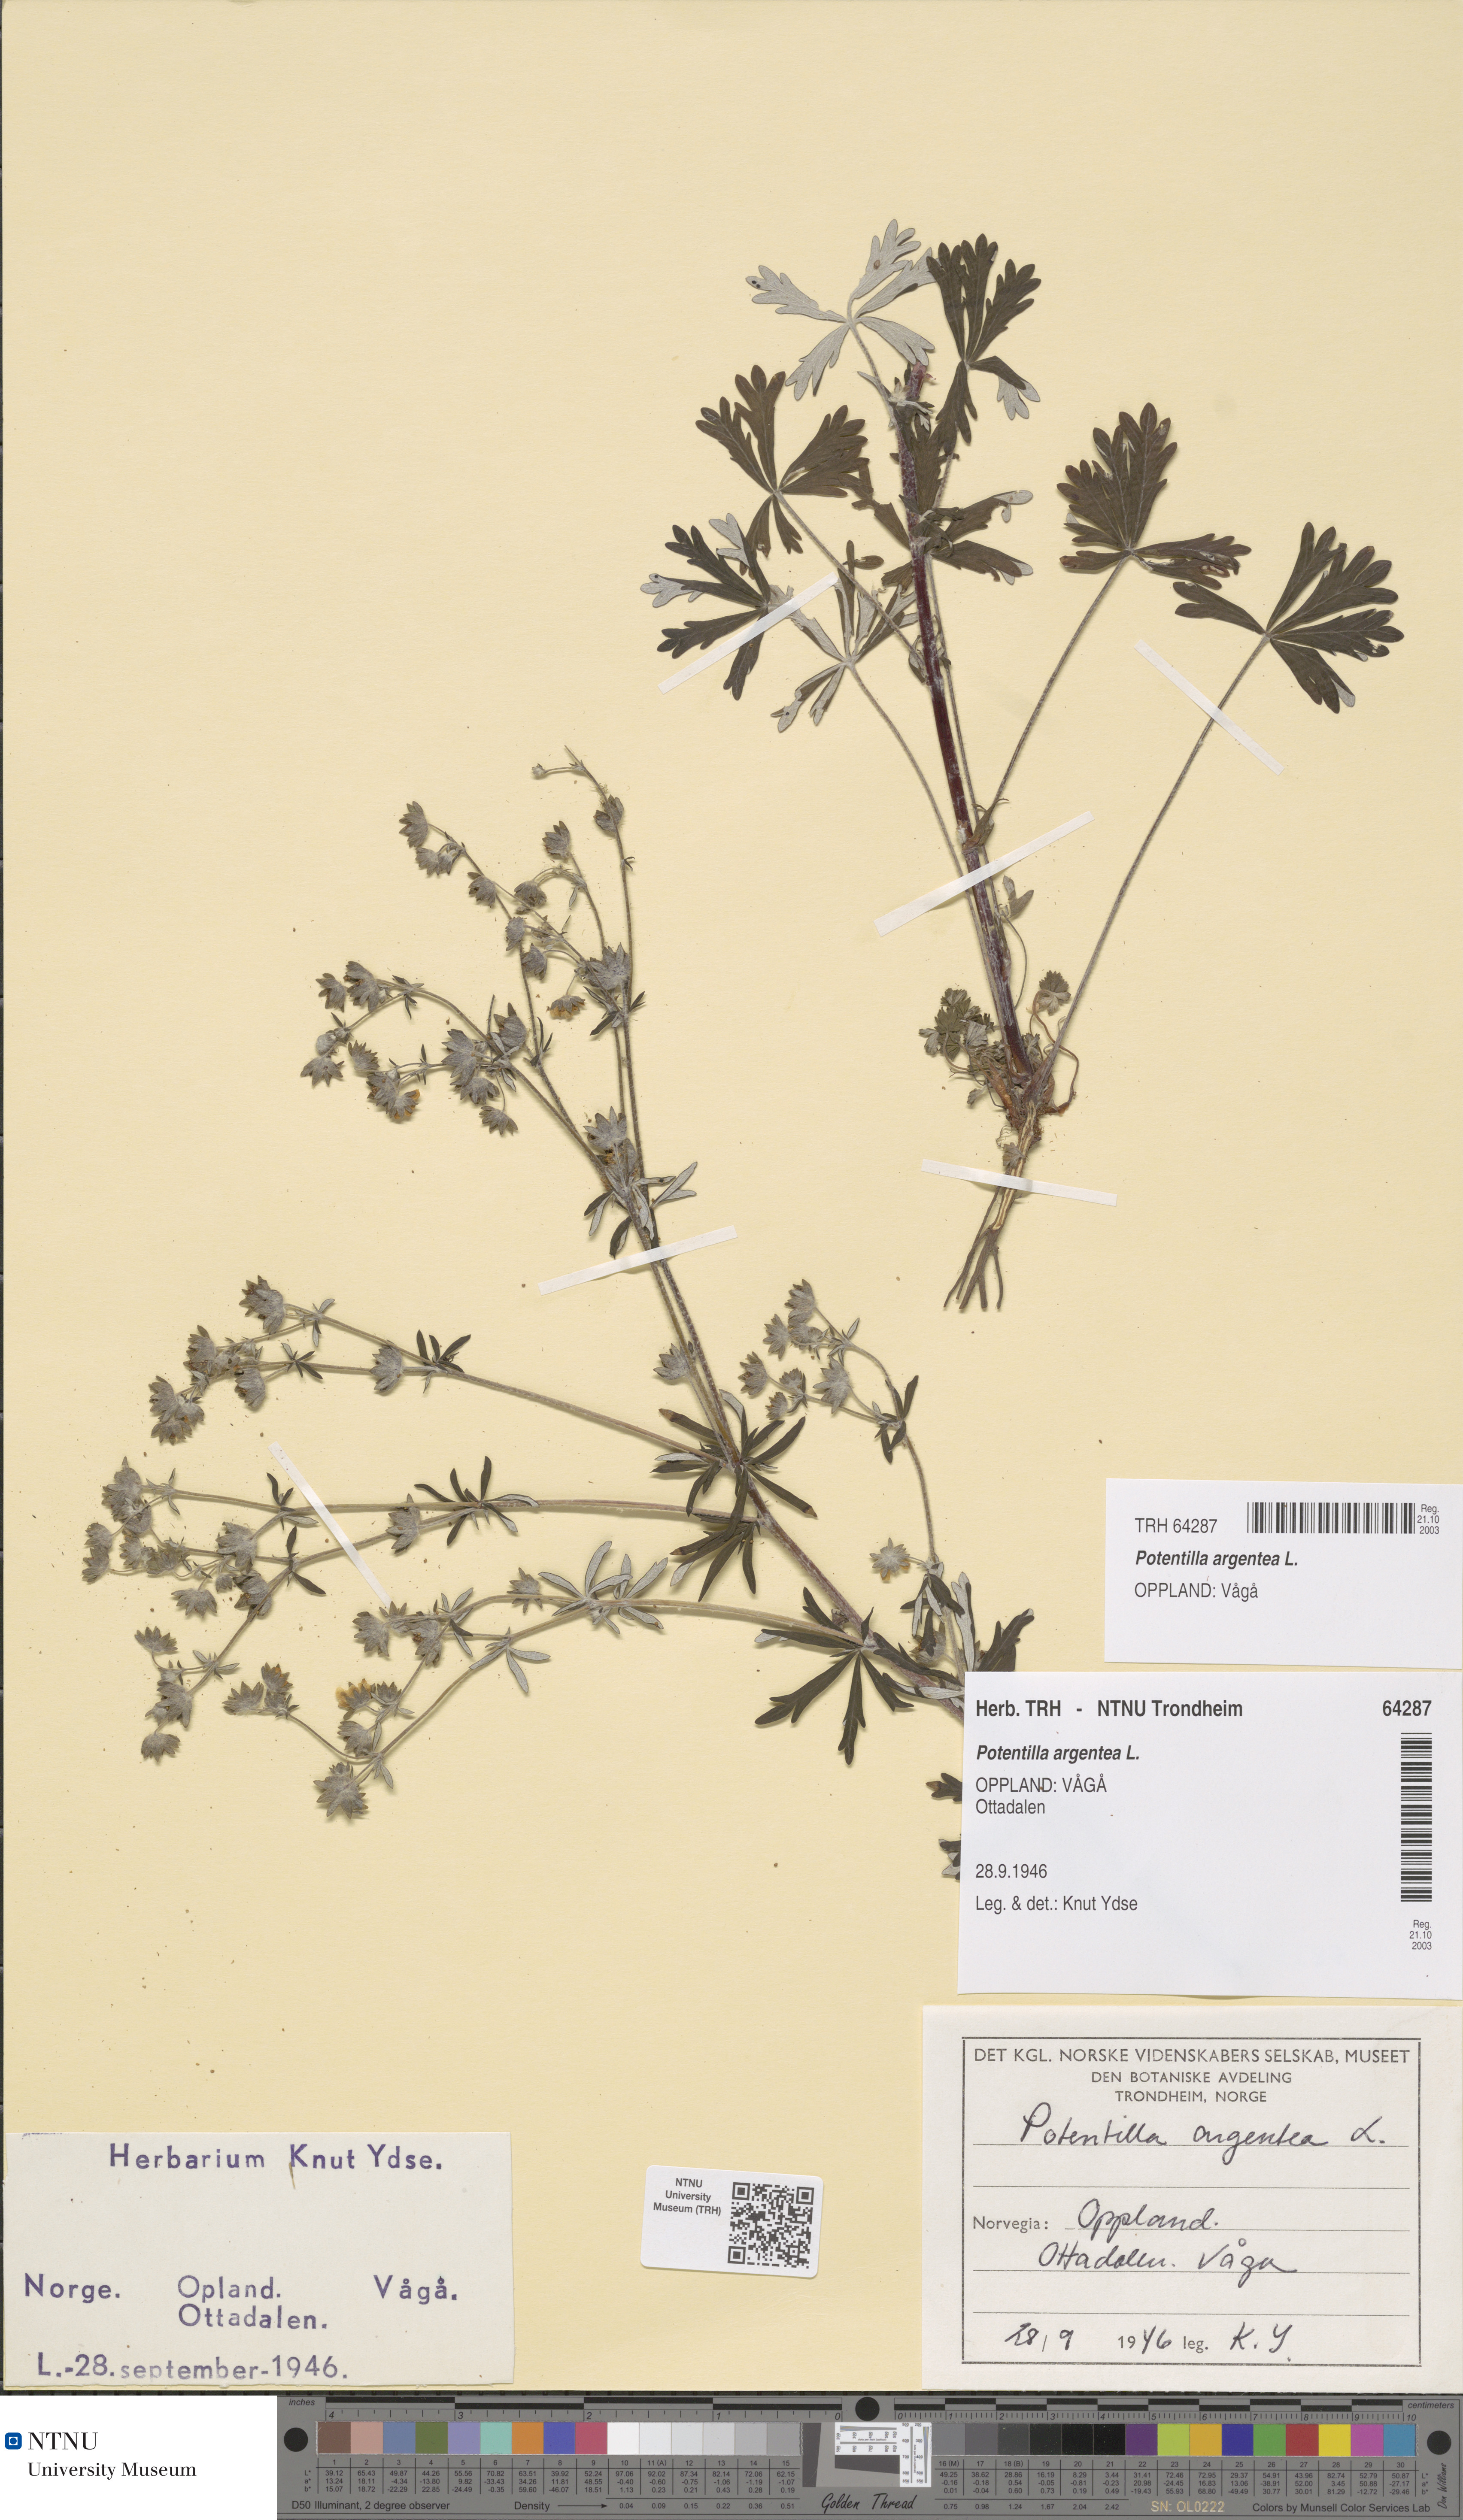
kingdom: Plantae
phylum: Tracheophyta
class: Magnoliopsida
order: Rosales
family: Rosaceae
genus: Potentilla
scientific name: Potentilla argentea
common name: Hoary cinquefoil
